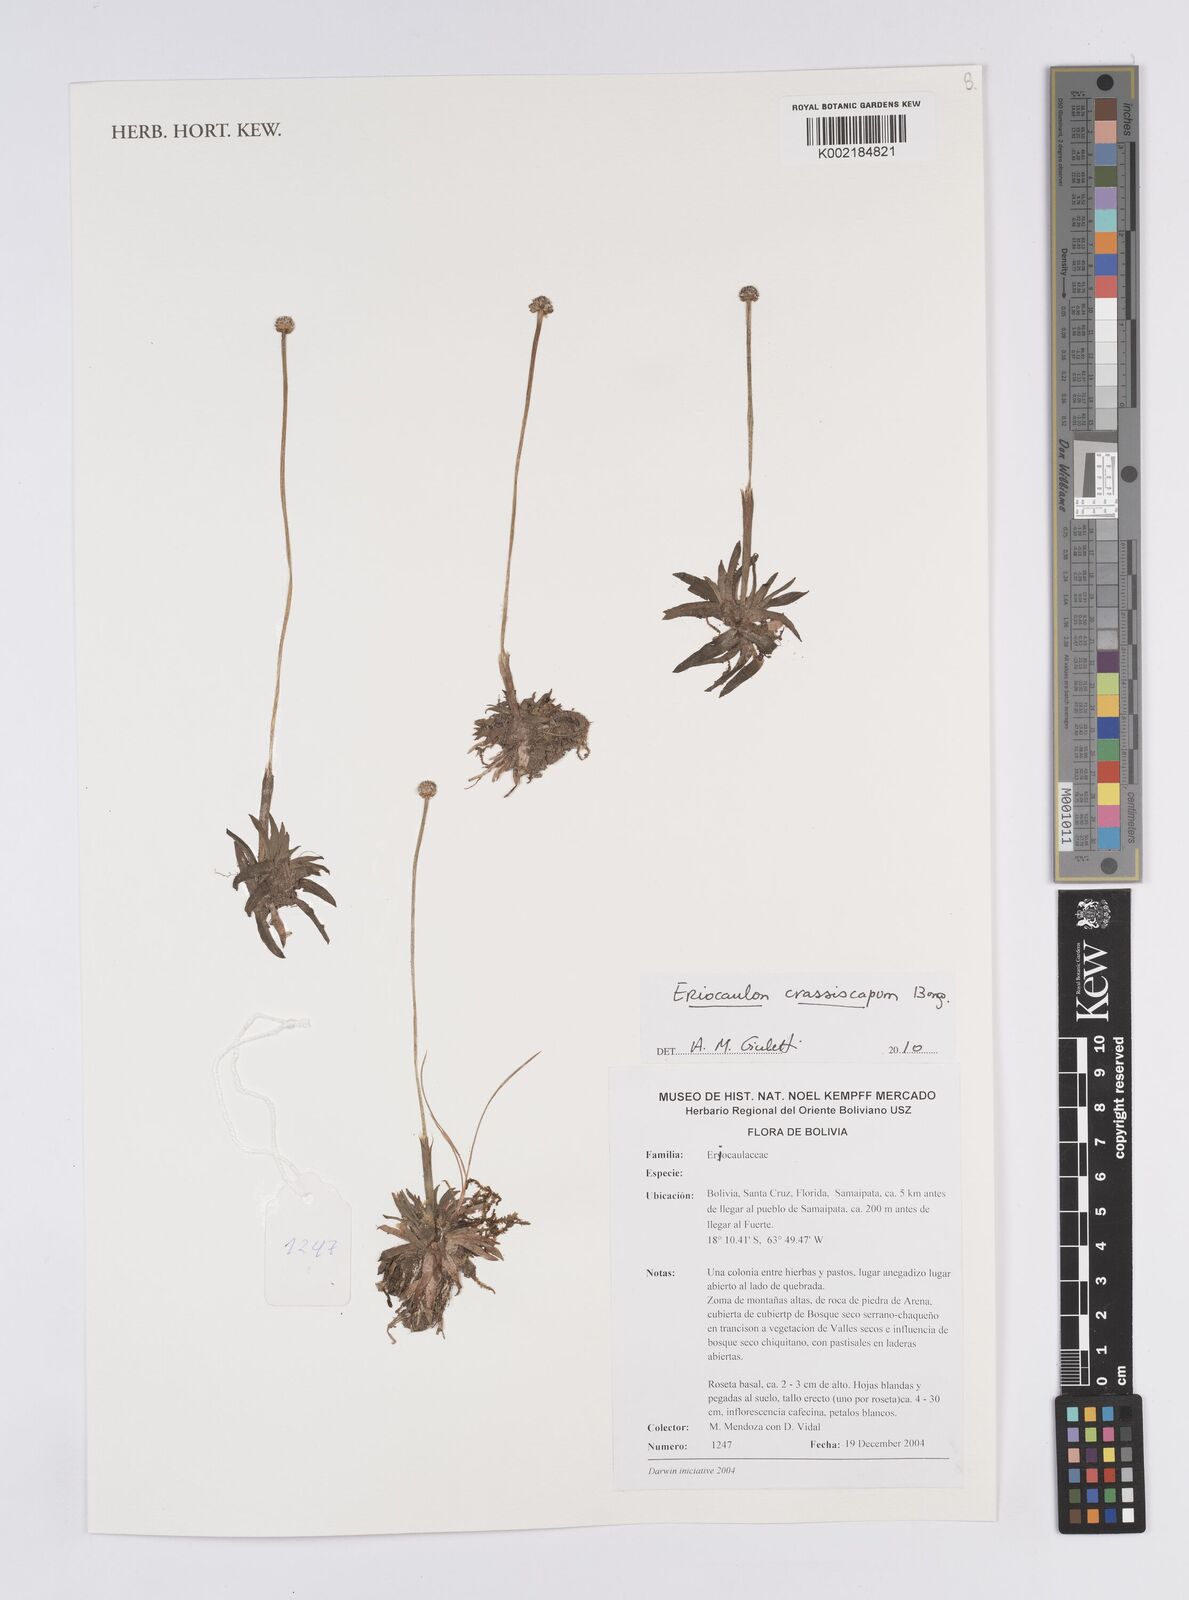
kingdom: Plantae
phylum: Tracheophyta
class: Liliopsida
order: Poales
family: Eriocaulaceae
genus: Eriocaulon
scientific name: Eriocaulon crassiscapum
